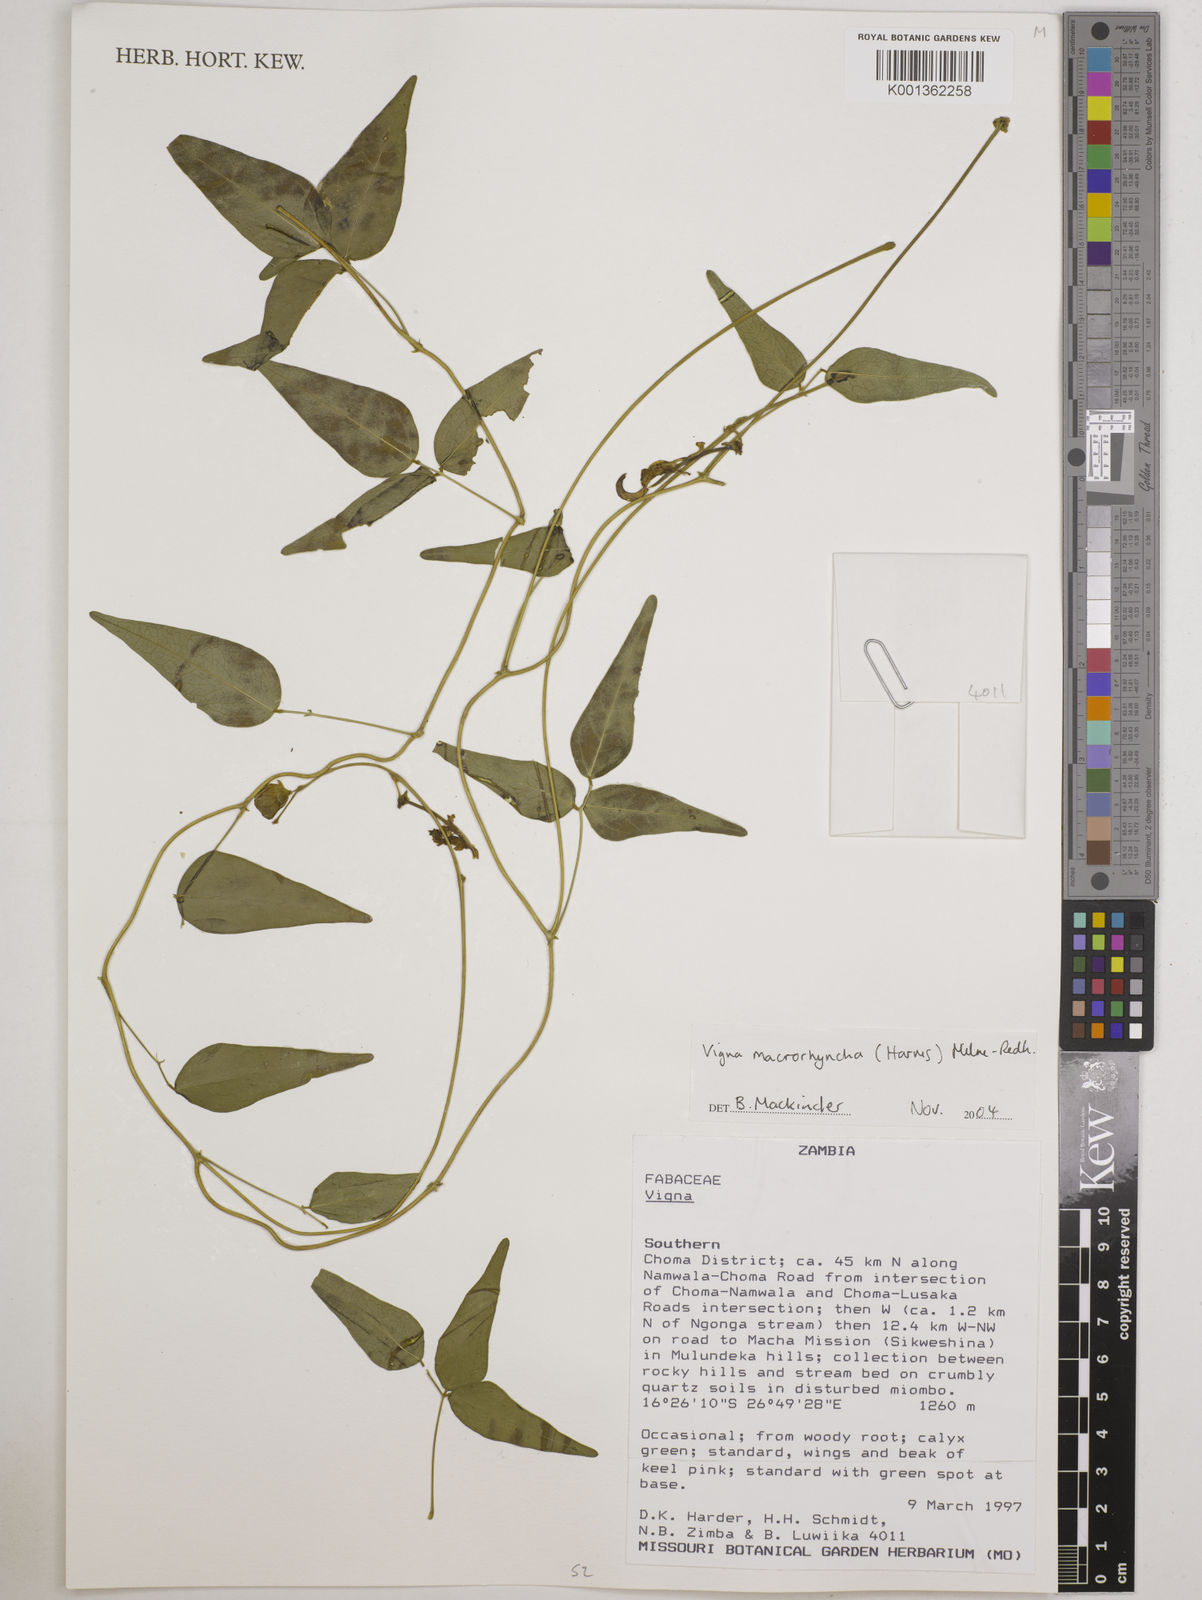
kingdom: Plantae
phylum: Tracheophyta
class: Magnoliopsida
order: Fabales
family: Fabaceae
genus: Wajira
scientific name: Wajira grahamiana
